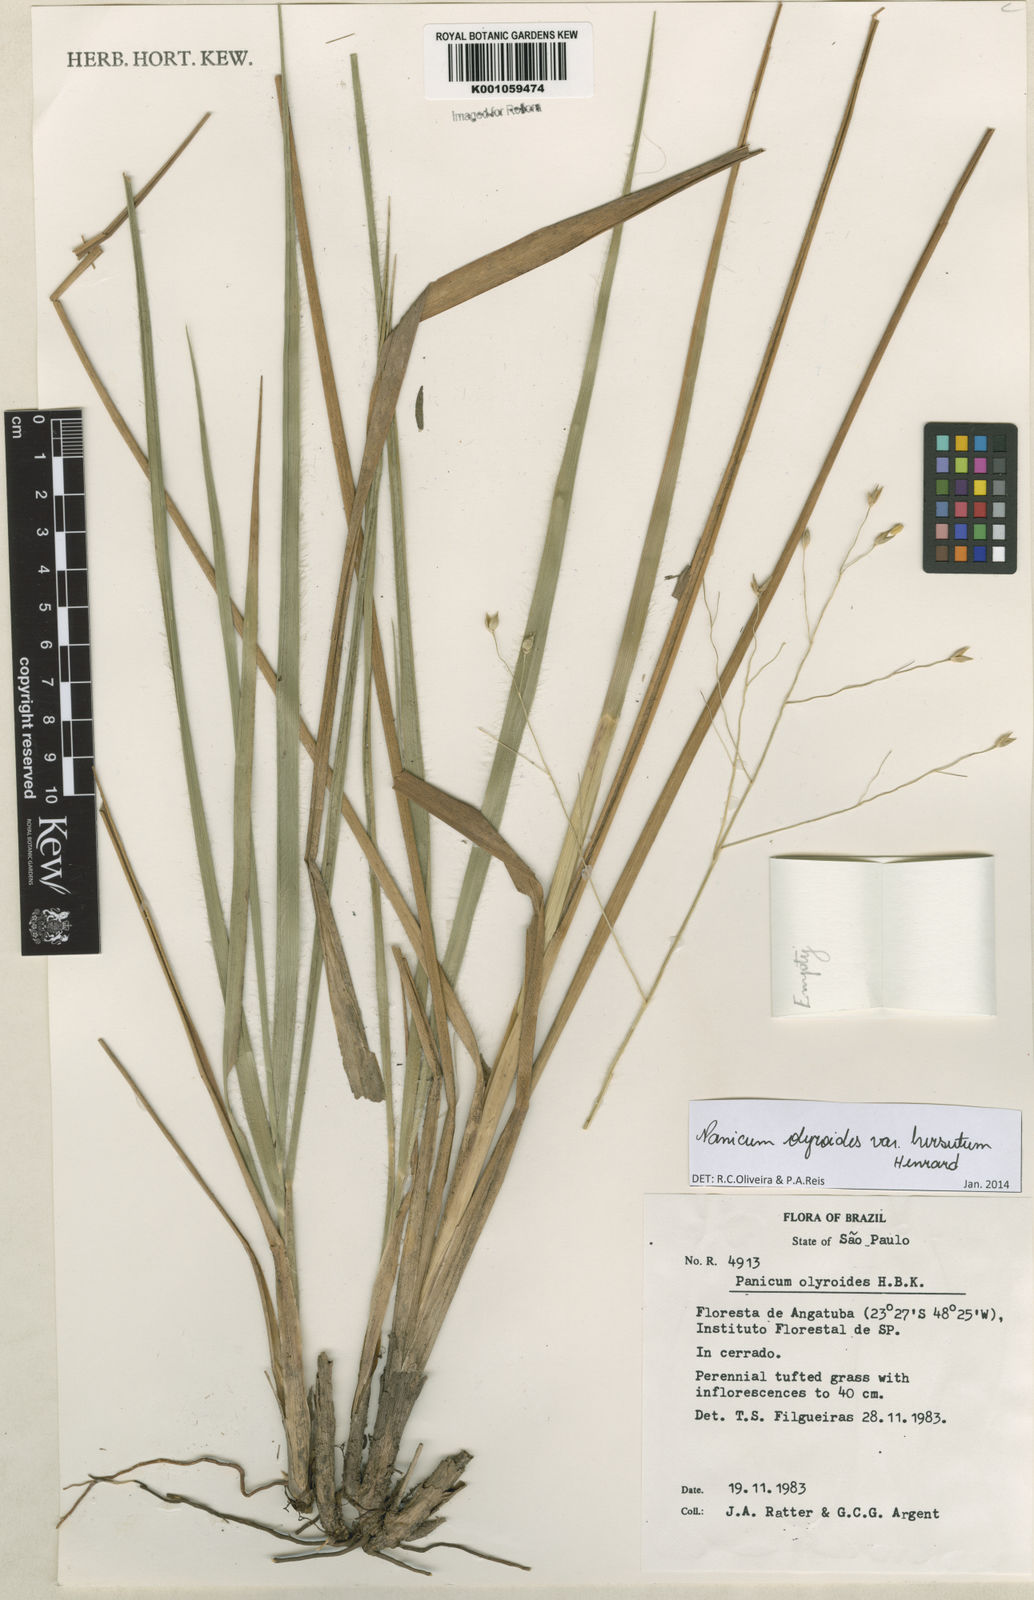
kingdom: Plantae
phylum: Tracheophyta
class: Liliopsida
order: Poales
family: Poaceae
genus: Panicum
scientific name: Panicum olyroides
